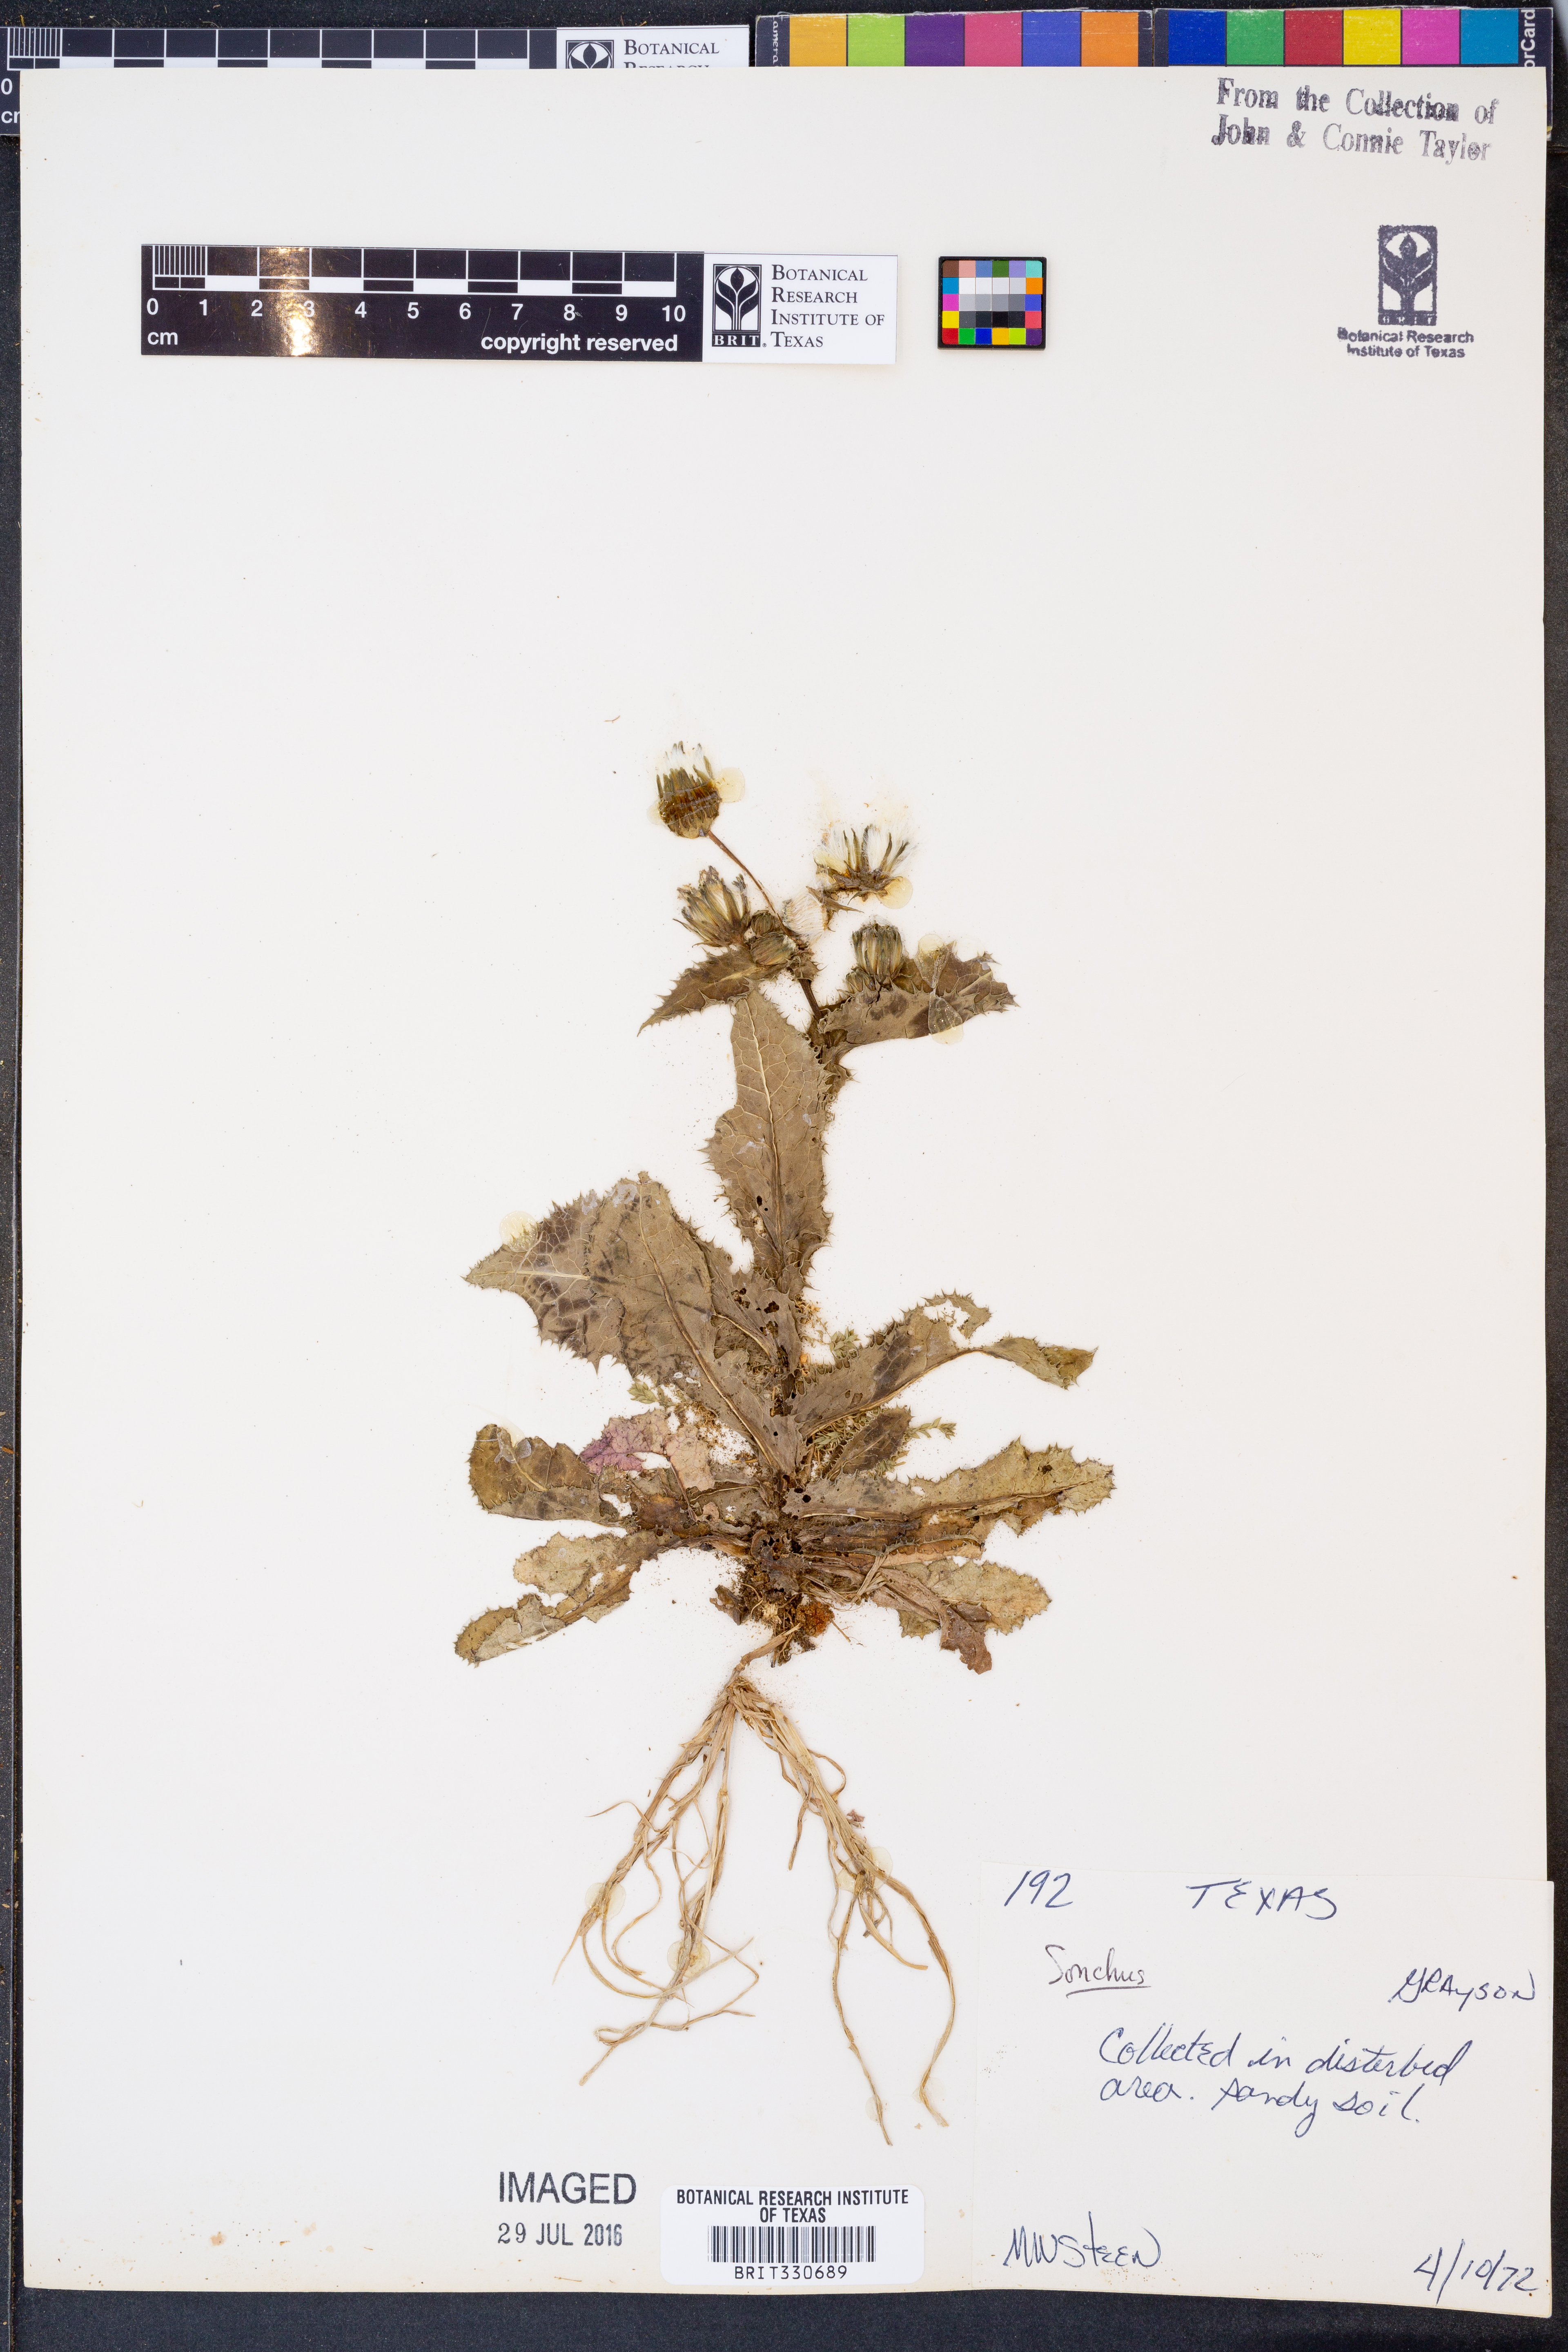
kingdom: Plantae
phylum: Tracheophyta
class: Magnoliopsida
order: Asterales
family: Asteraceae
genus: Sonchus
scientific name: Sonchus
